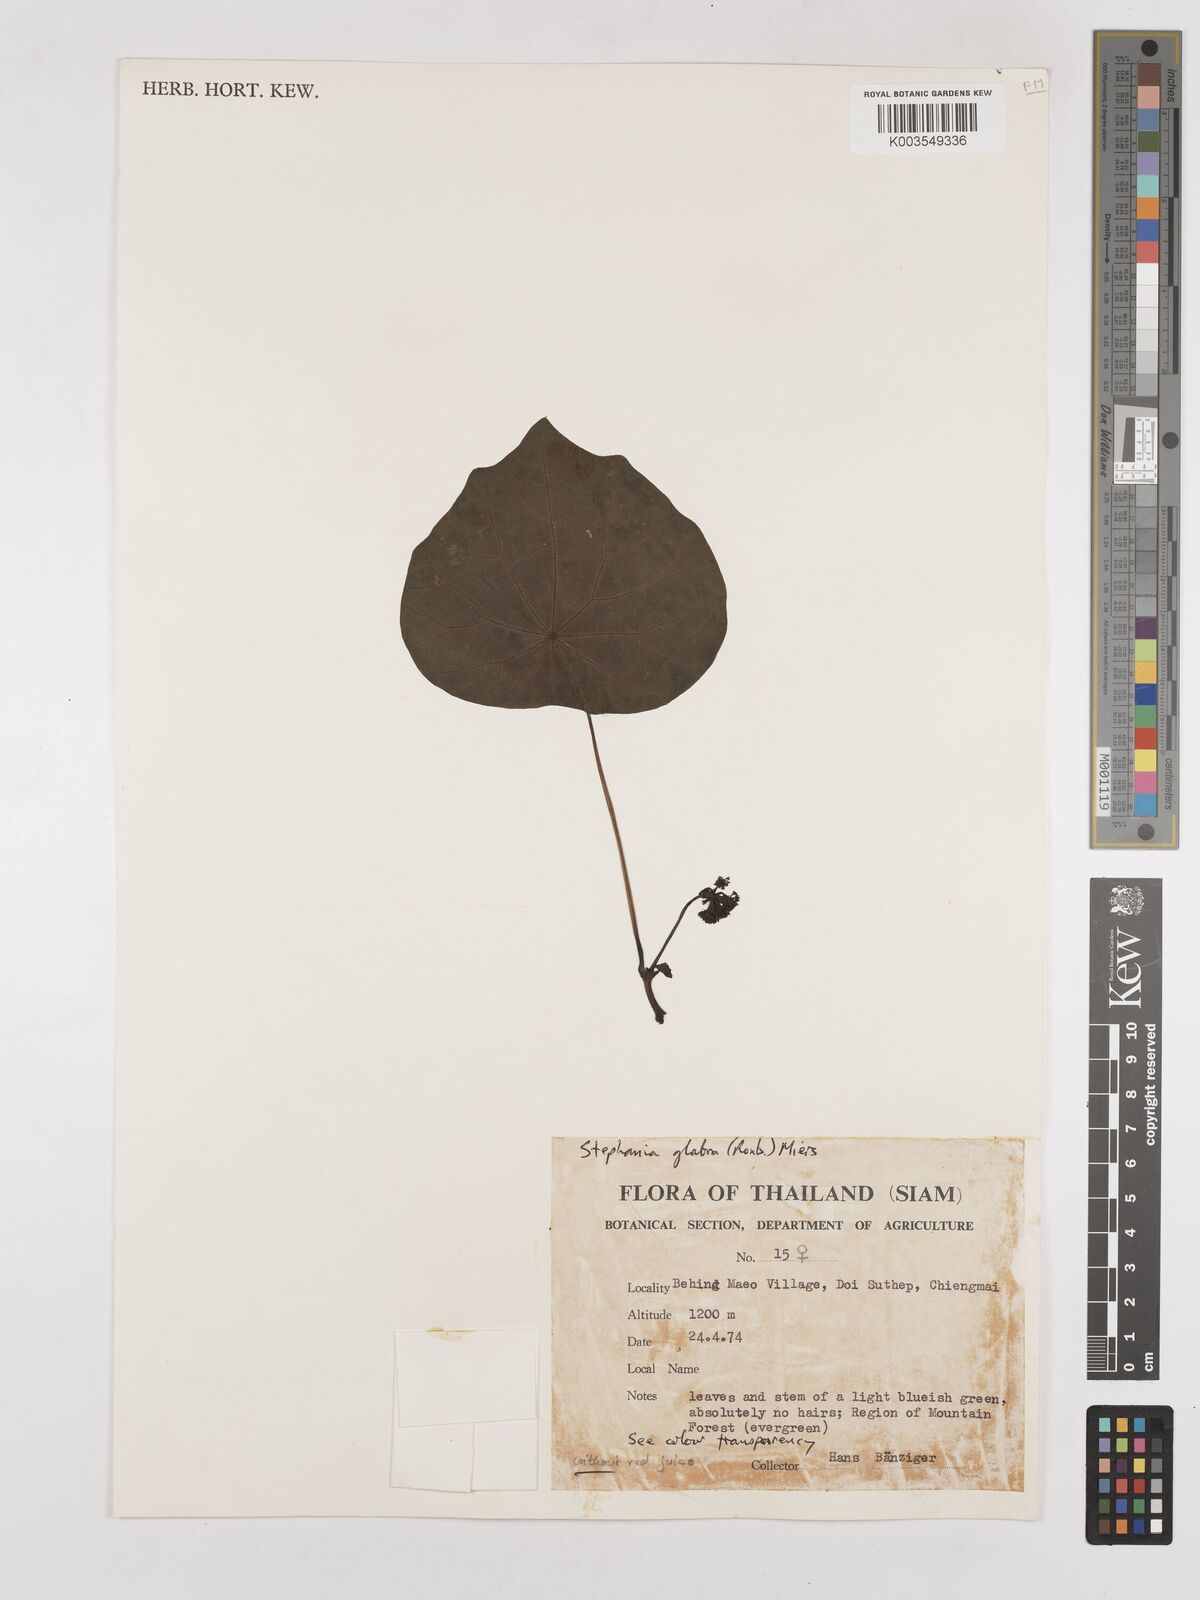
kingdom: Plantae
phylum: Tracheophyta
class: Magnoliopsida
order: Ranunculales
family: Menispermaceae
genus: Stephania
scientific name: Stephania rotunda
